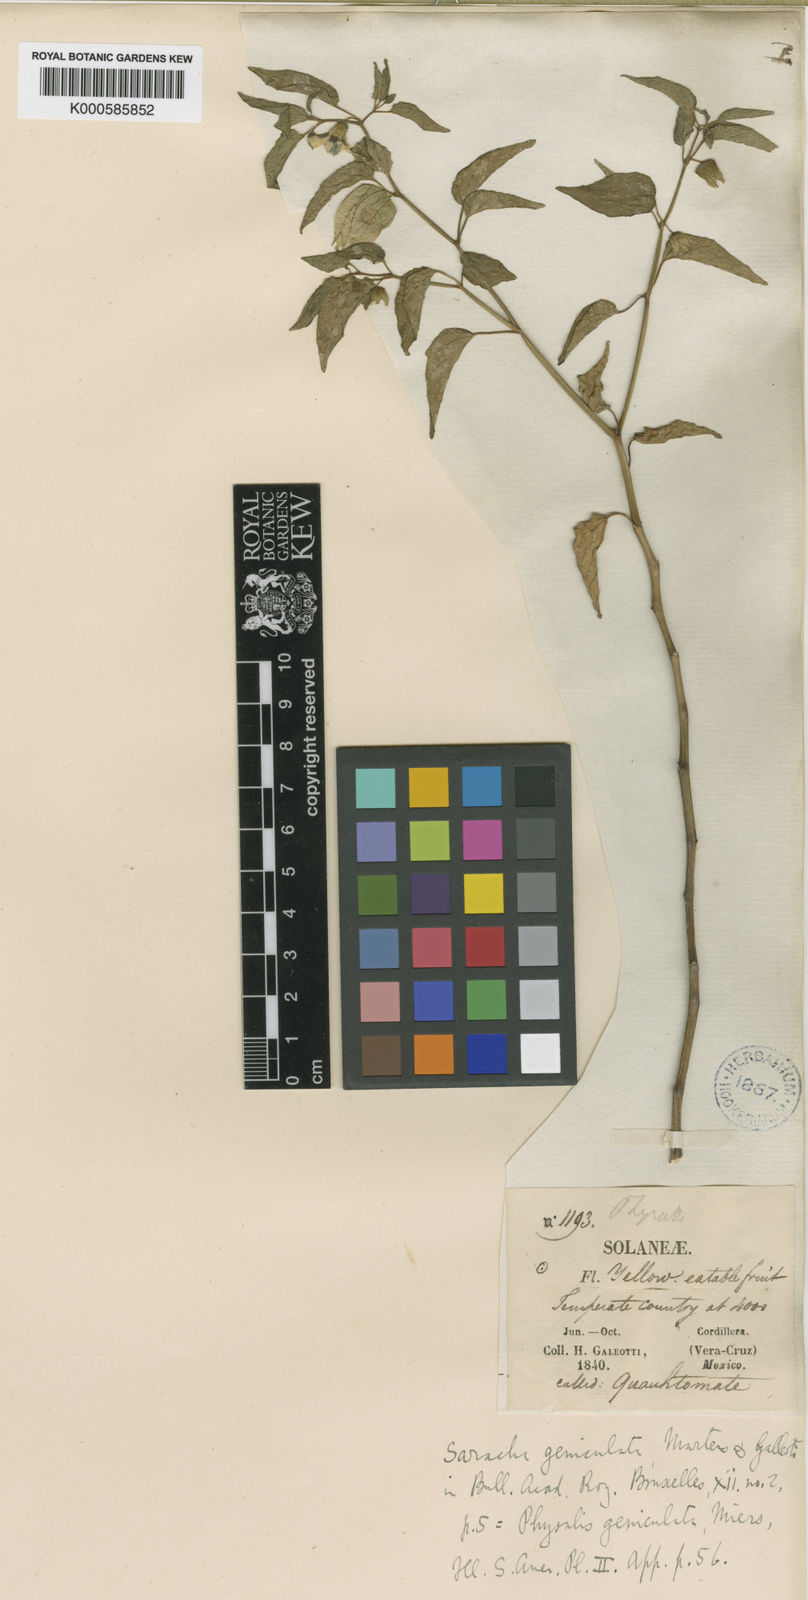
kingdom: Plantae
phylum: Tracheophyta
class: Magnoliopsida
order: Solanales
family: Solanaceae
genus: Physalis
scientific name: Physalis philadelphica
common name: Husk-tomato
